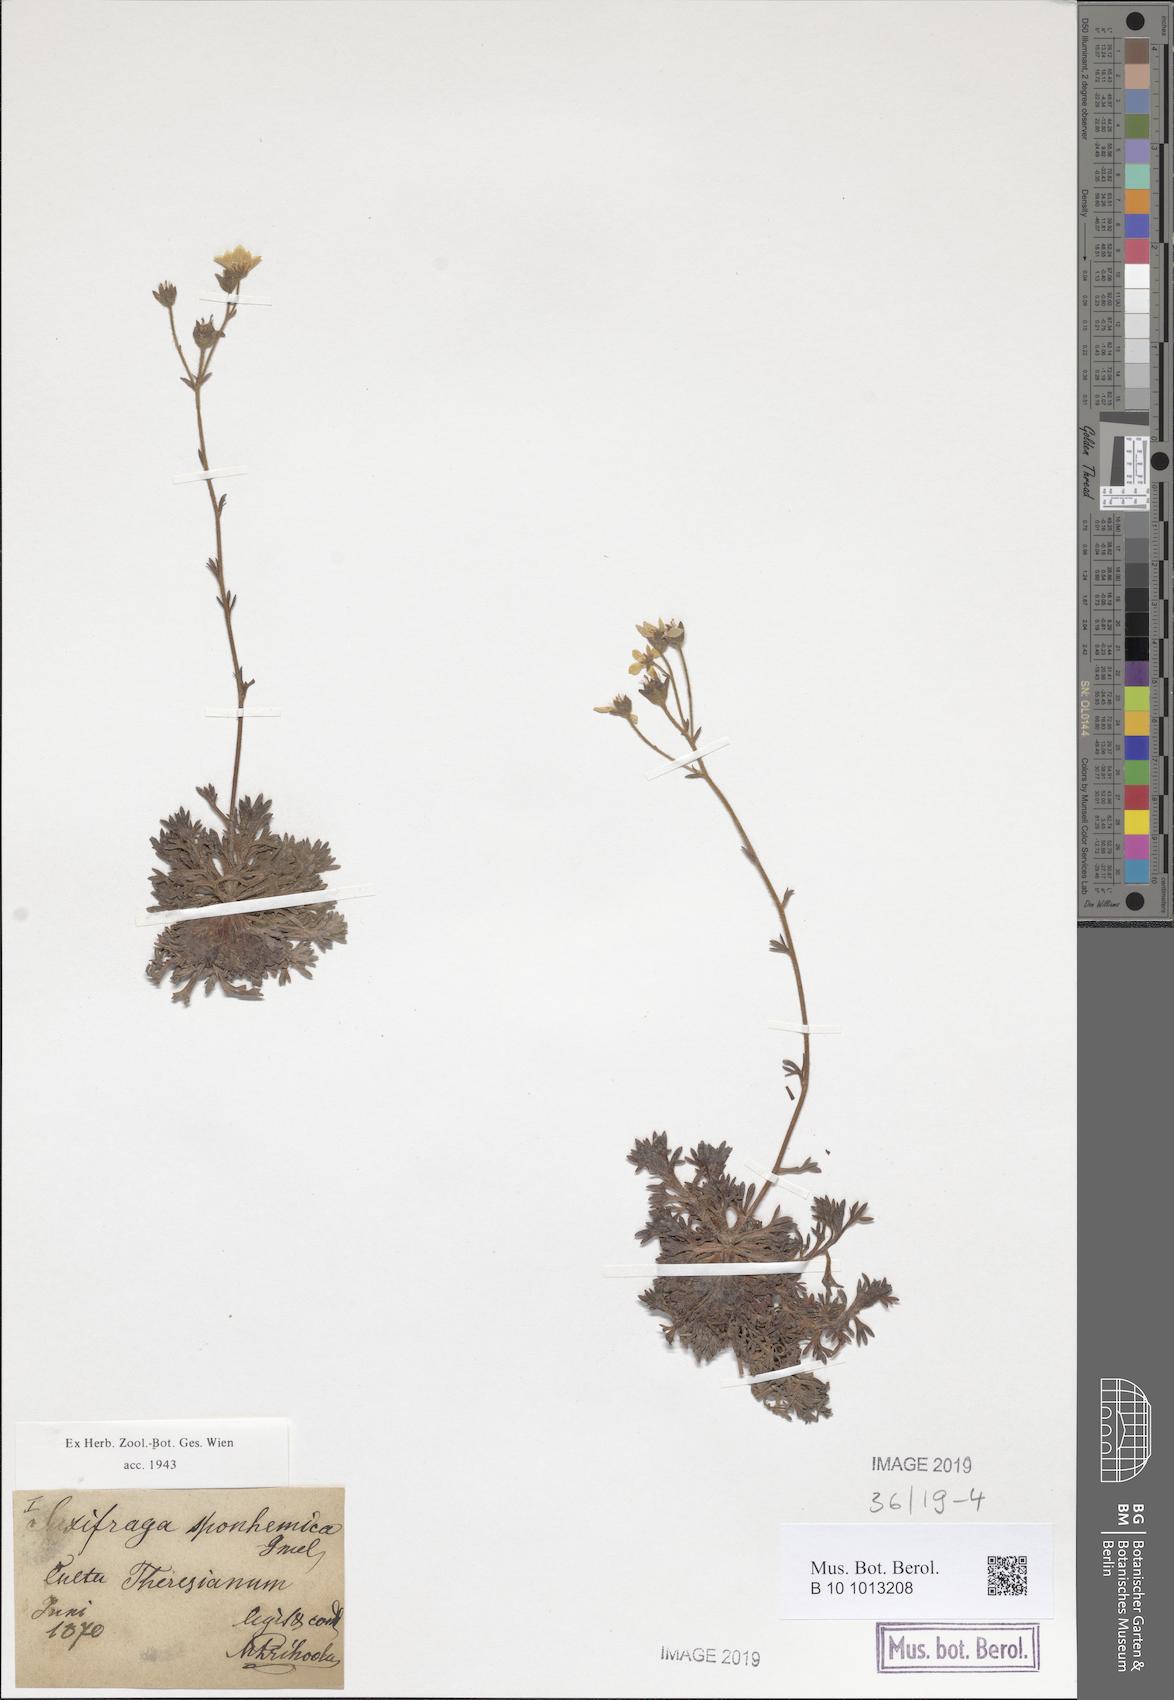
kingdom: Plantae
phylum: Tracheophyta
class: Magnoliopsida
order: Saxifragales
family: Saxifragaceae
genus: Saxifraga
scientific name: Saxifraga rosacea
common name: Irish saxifrage
